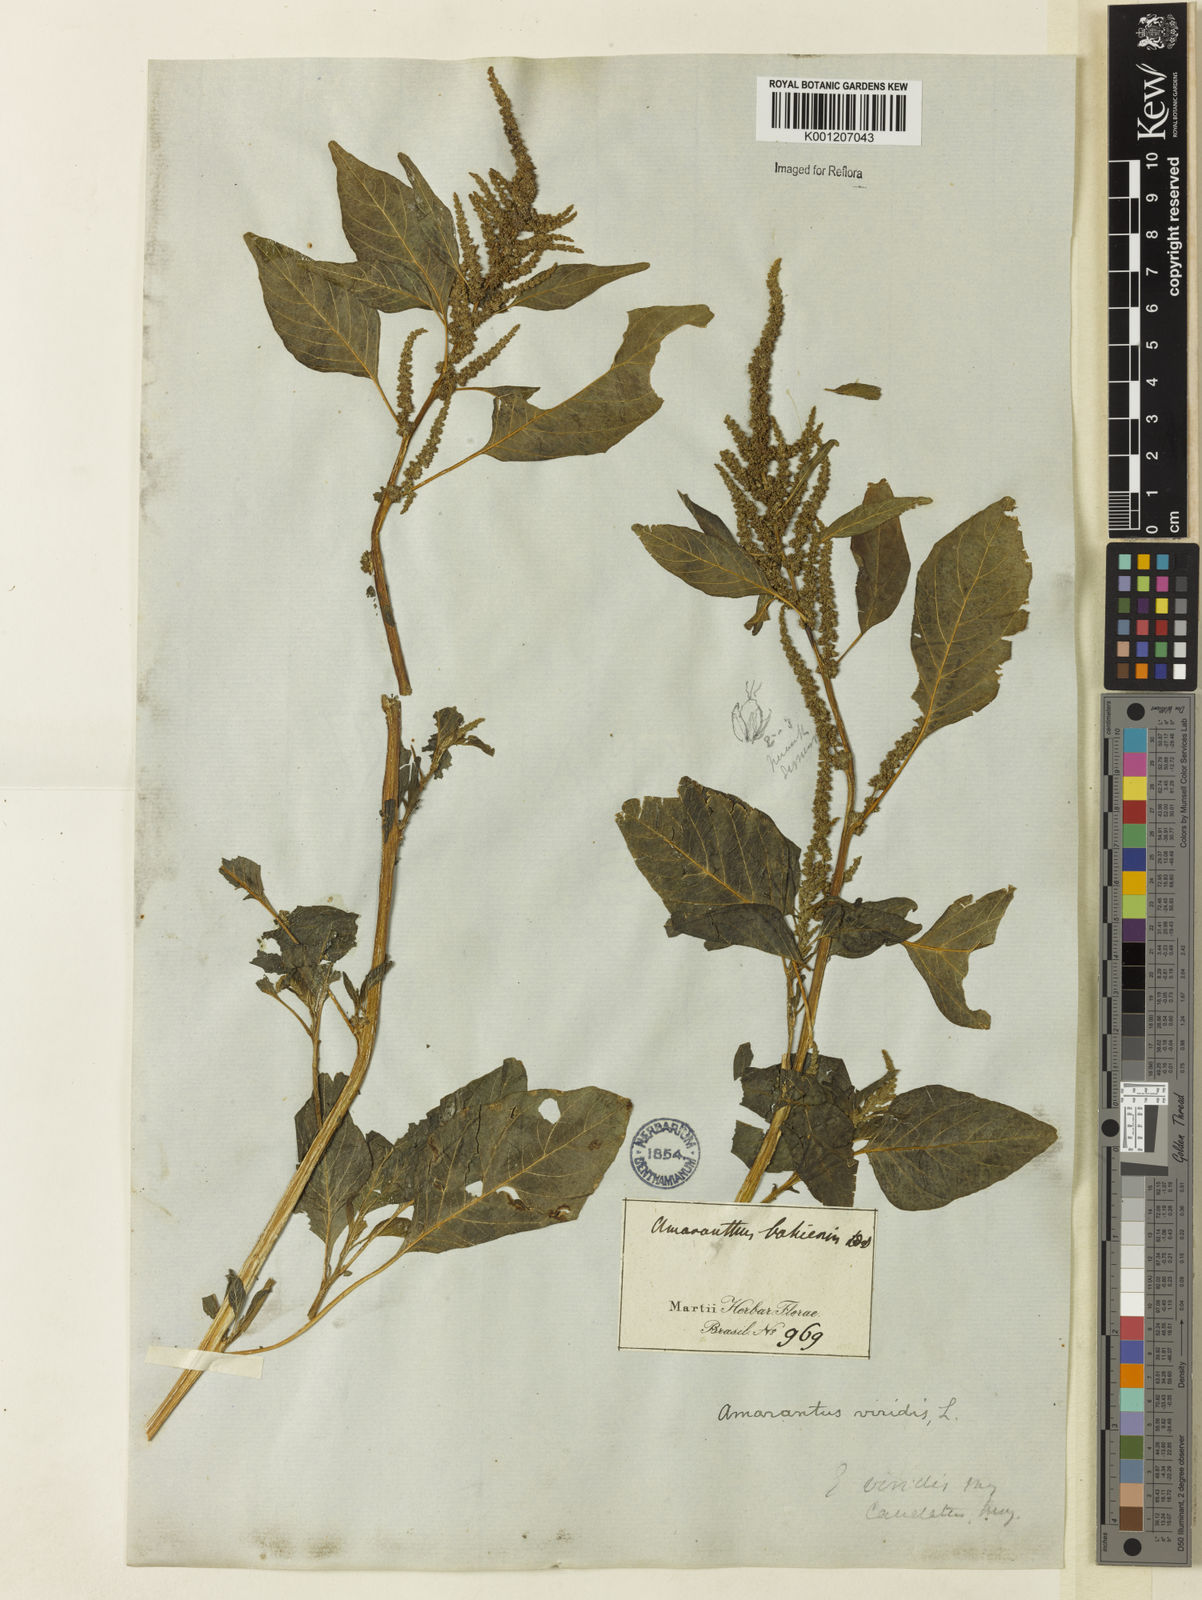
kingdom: Plantae
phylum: Tracheophyta
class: Magnoliopsida
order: Caryophyllales
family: Amaranthaceae
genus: Amaranthus
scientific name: Amaranthus
